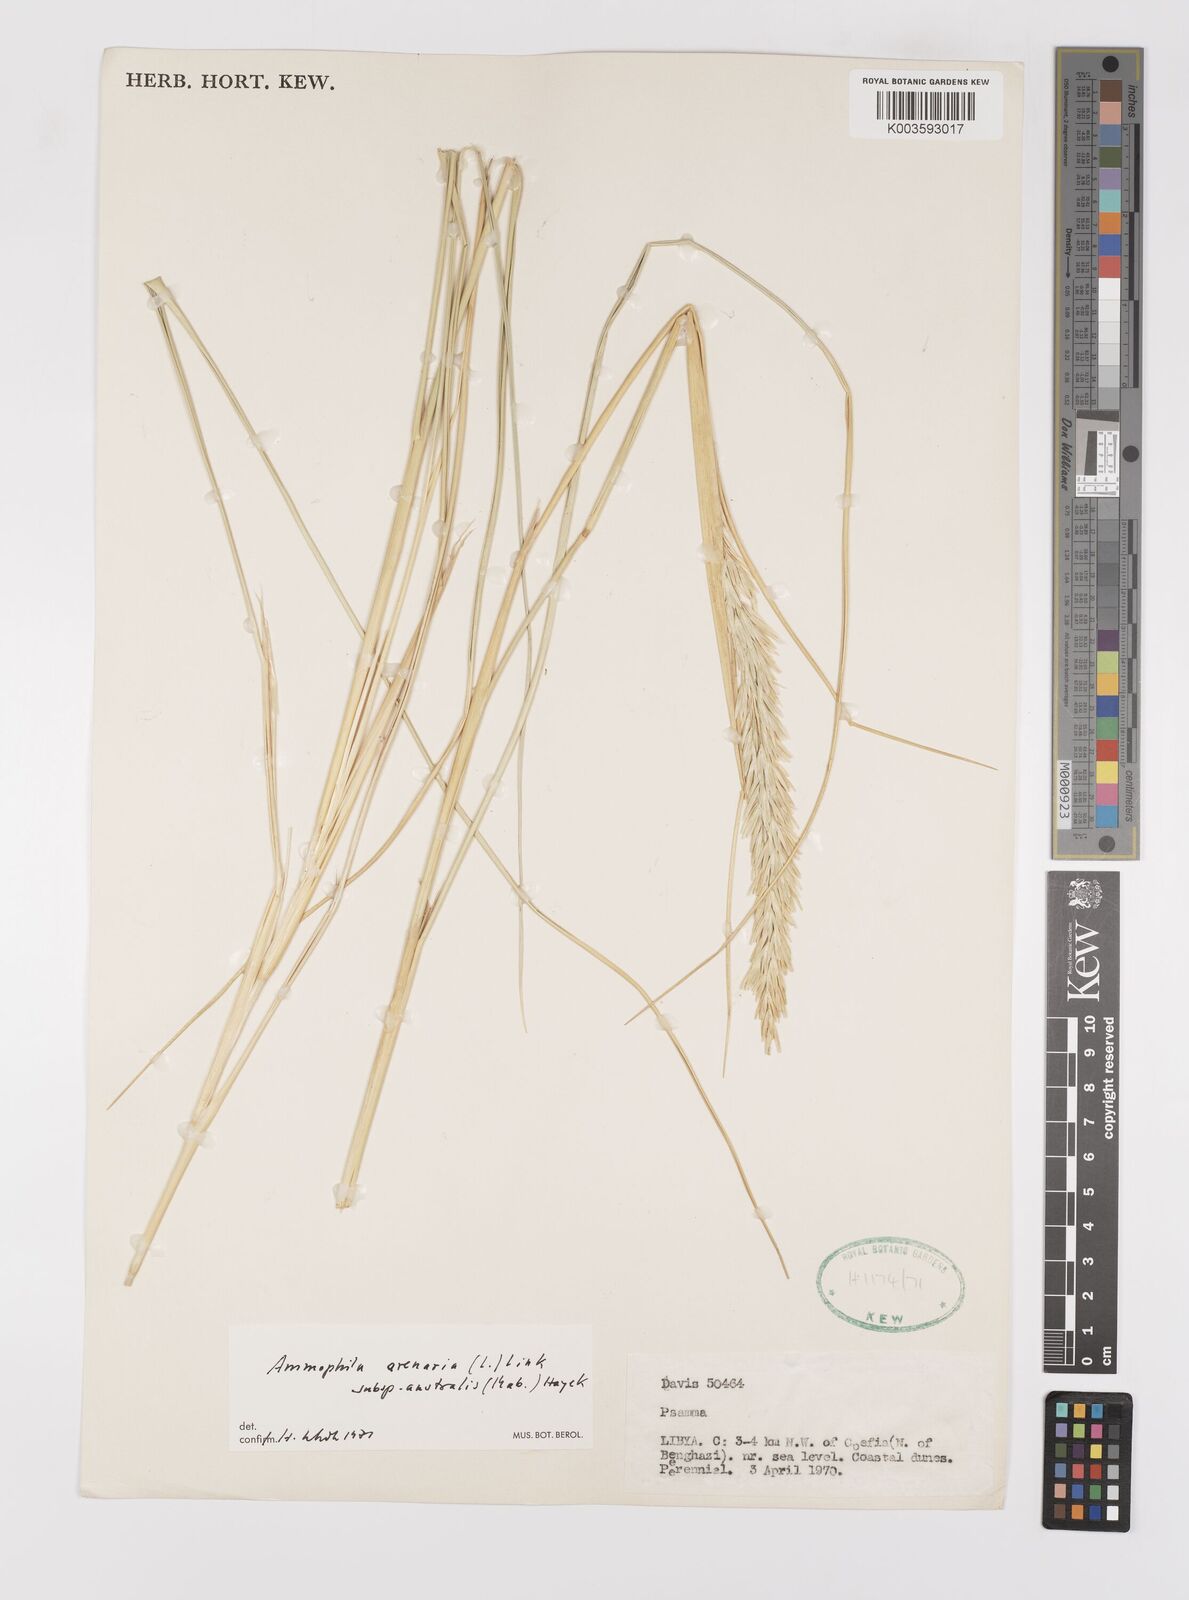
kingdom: Plantae
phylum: Tracheophyta
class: Liliopsida
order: Poales
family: Poaceae
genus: Calamagrostis
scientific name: Calamagrostis arenaria
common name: European beachgrass
